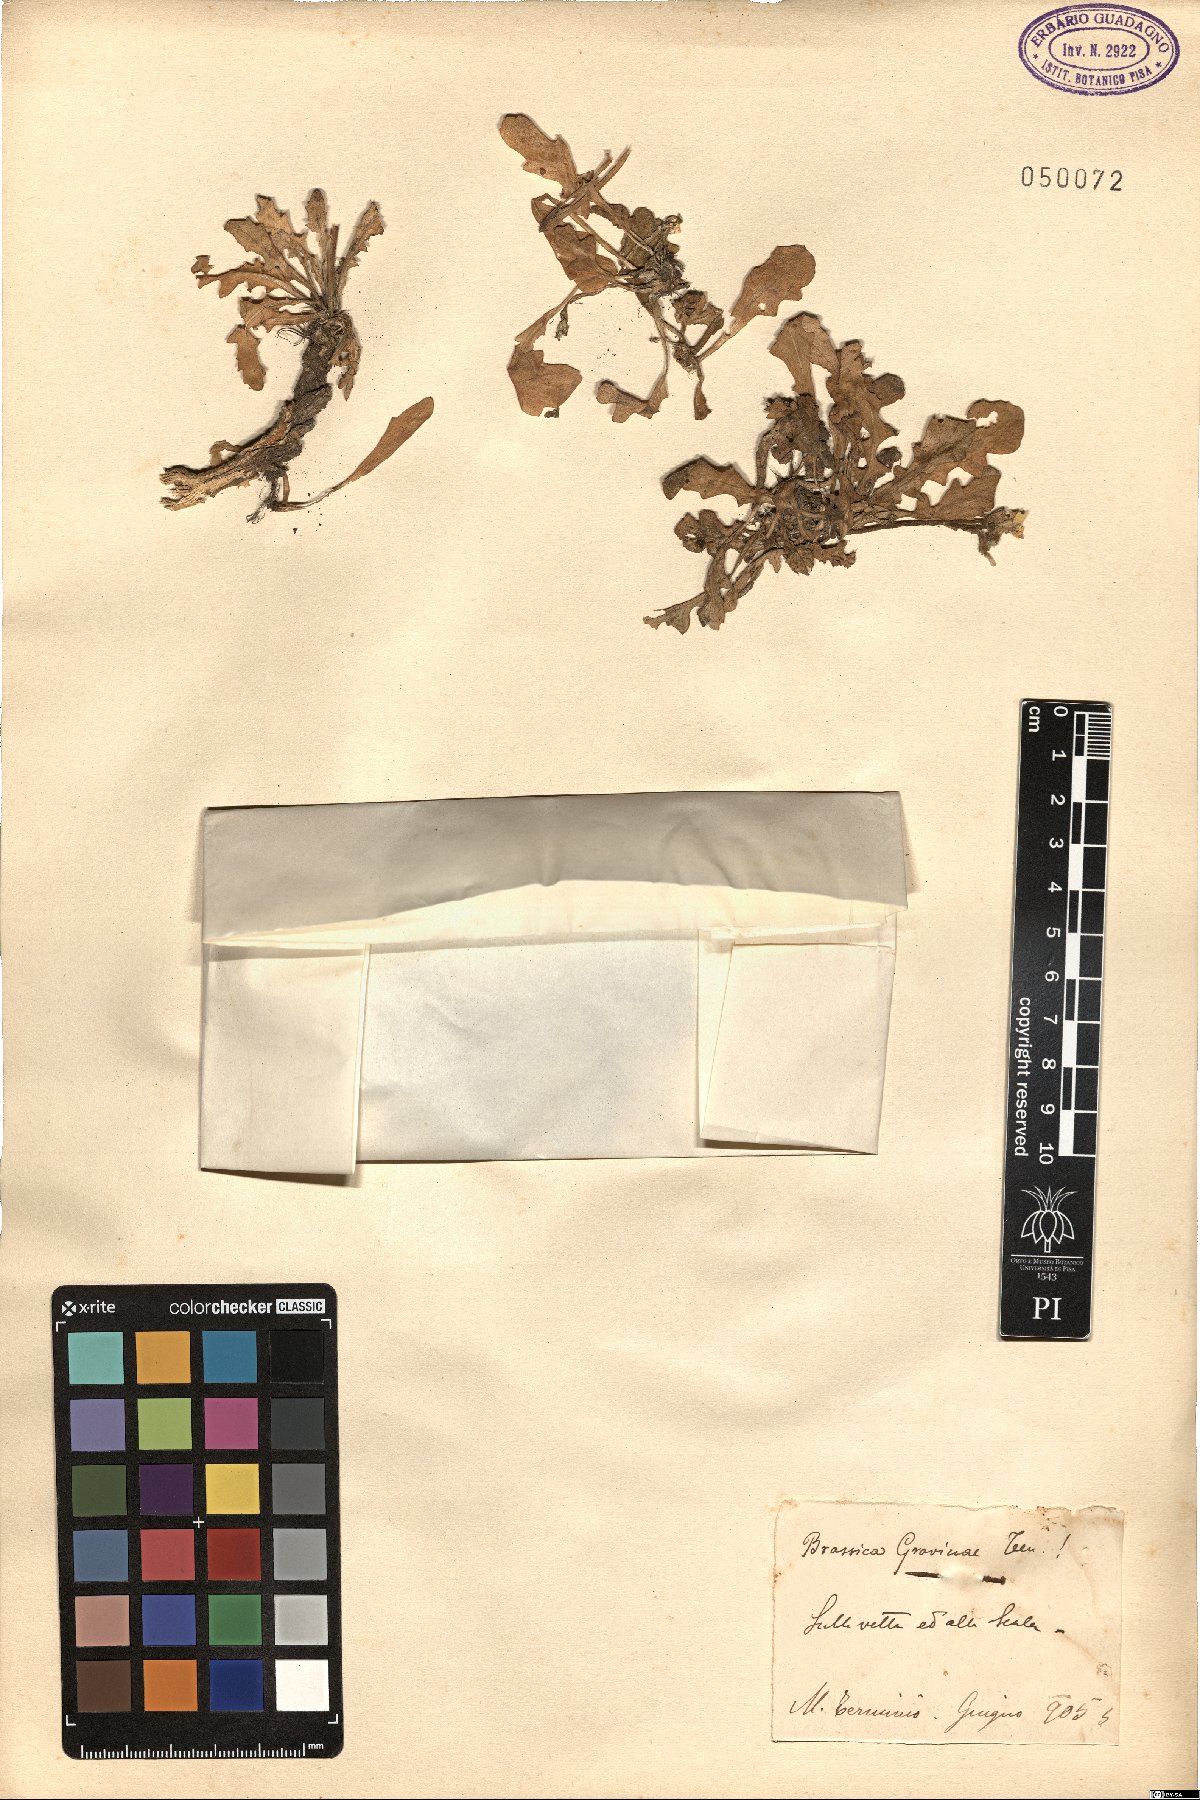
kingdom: Plantae
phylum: Tracheophyta
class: Magnoliopsida
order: Brassicales
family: Brassicaceae
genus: Brassica
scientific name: Brassica gravinae
